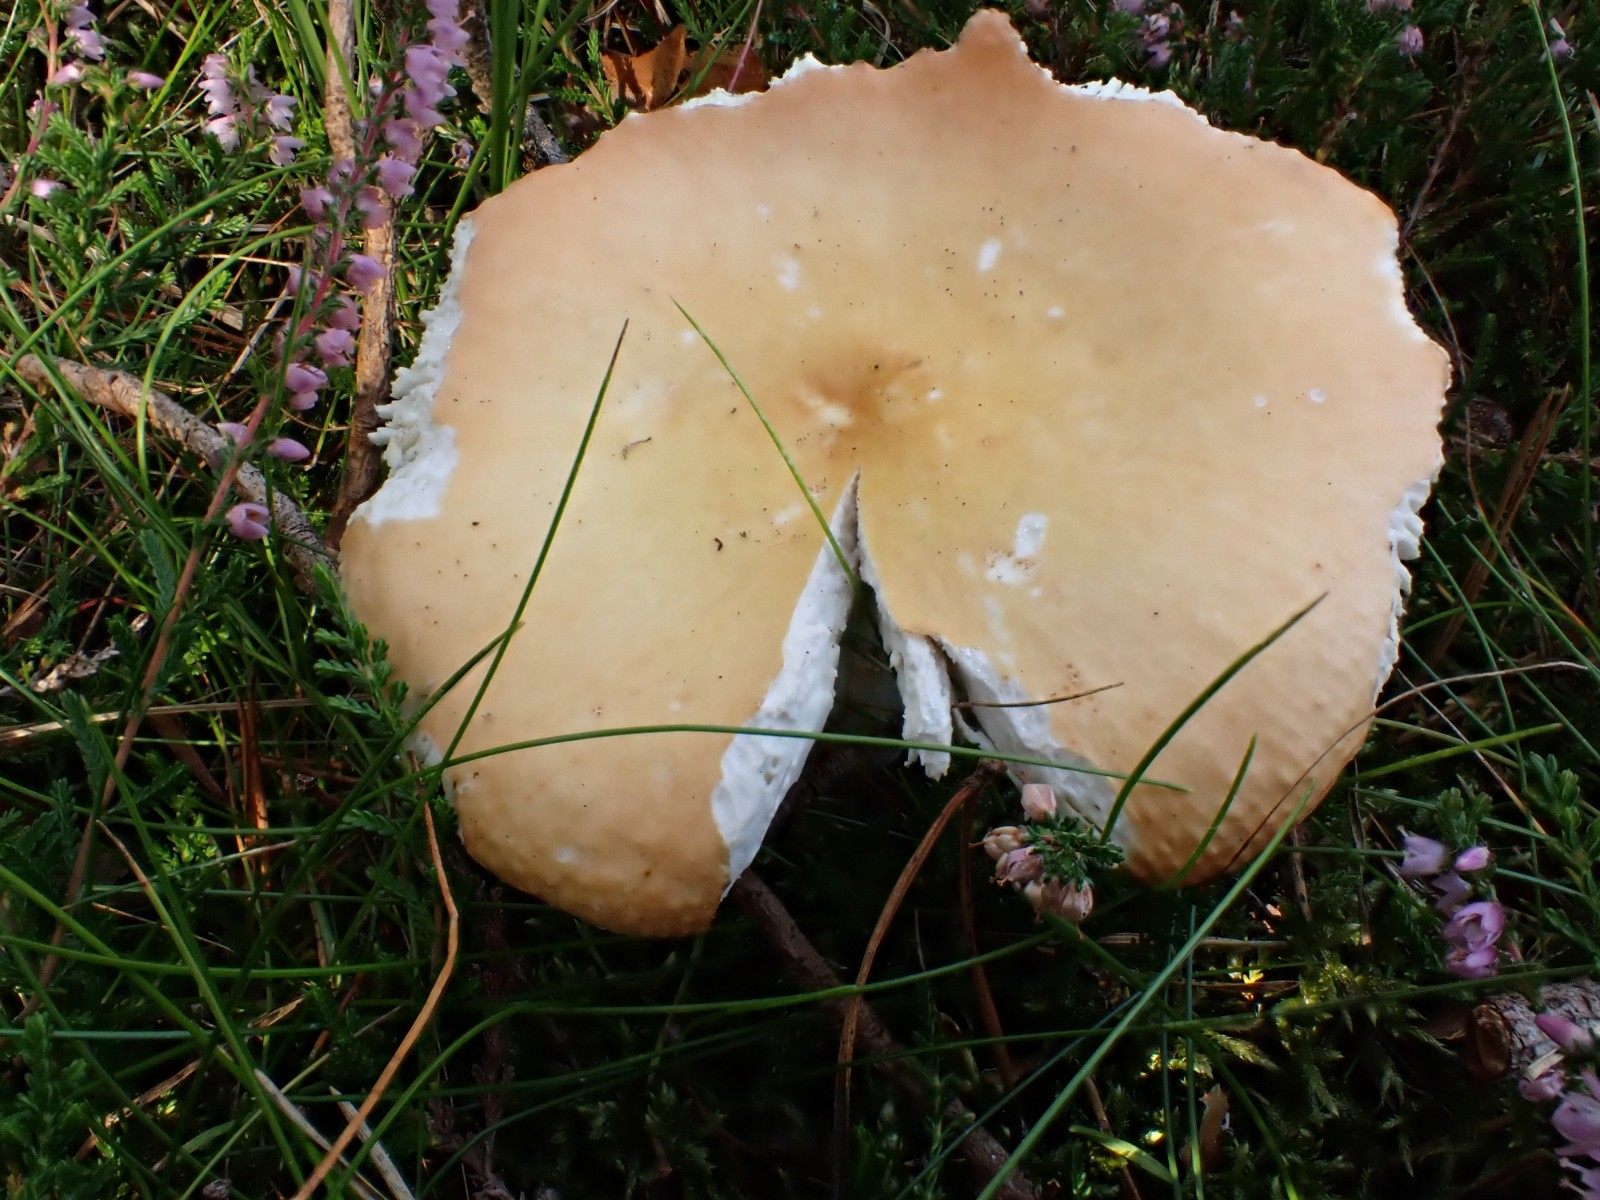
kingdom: Fungi
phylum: Basidiomycota
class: Agaricomycetes
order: Russulales
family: Russulaceae
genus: Russula
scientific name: Russula decolorans
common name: afblegende skørhat
